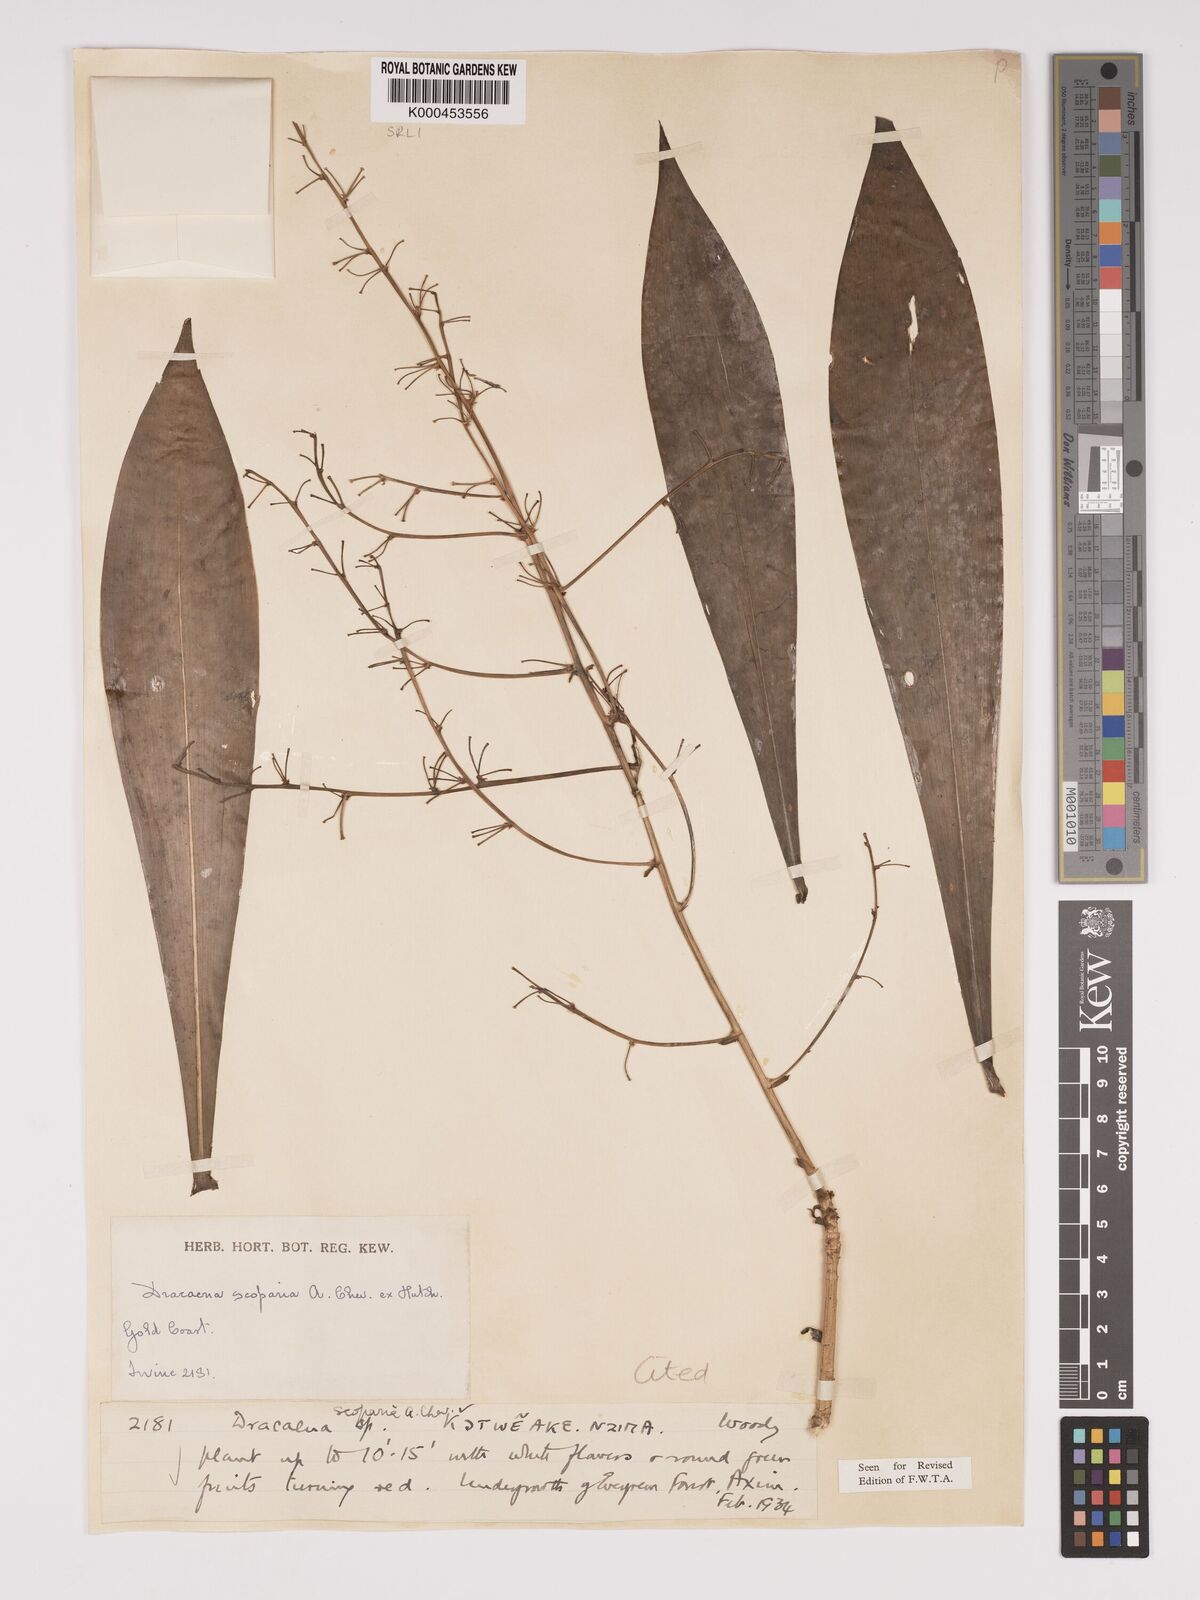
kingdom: Plantae
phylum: Tracheophyta
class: Liliopsida
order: Asparagales
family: Asparagaceae
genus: Dracaena
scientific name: Dracaena cerasifera
